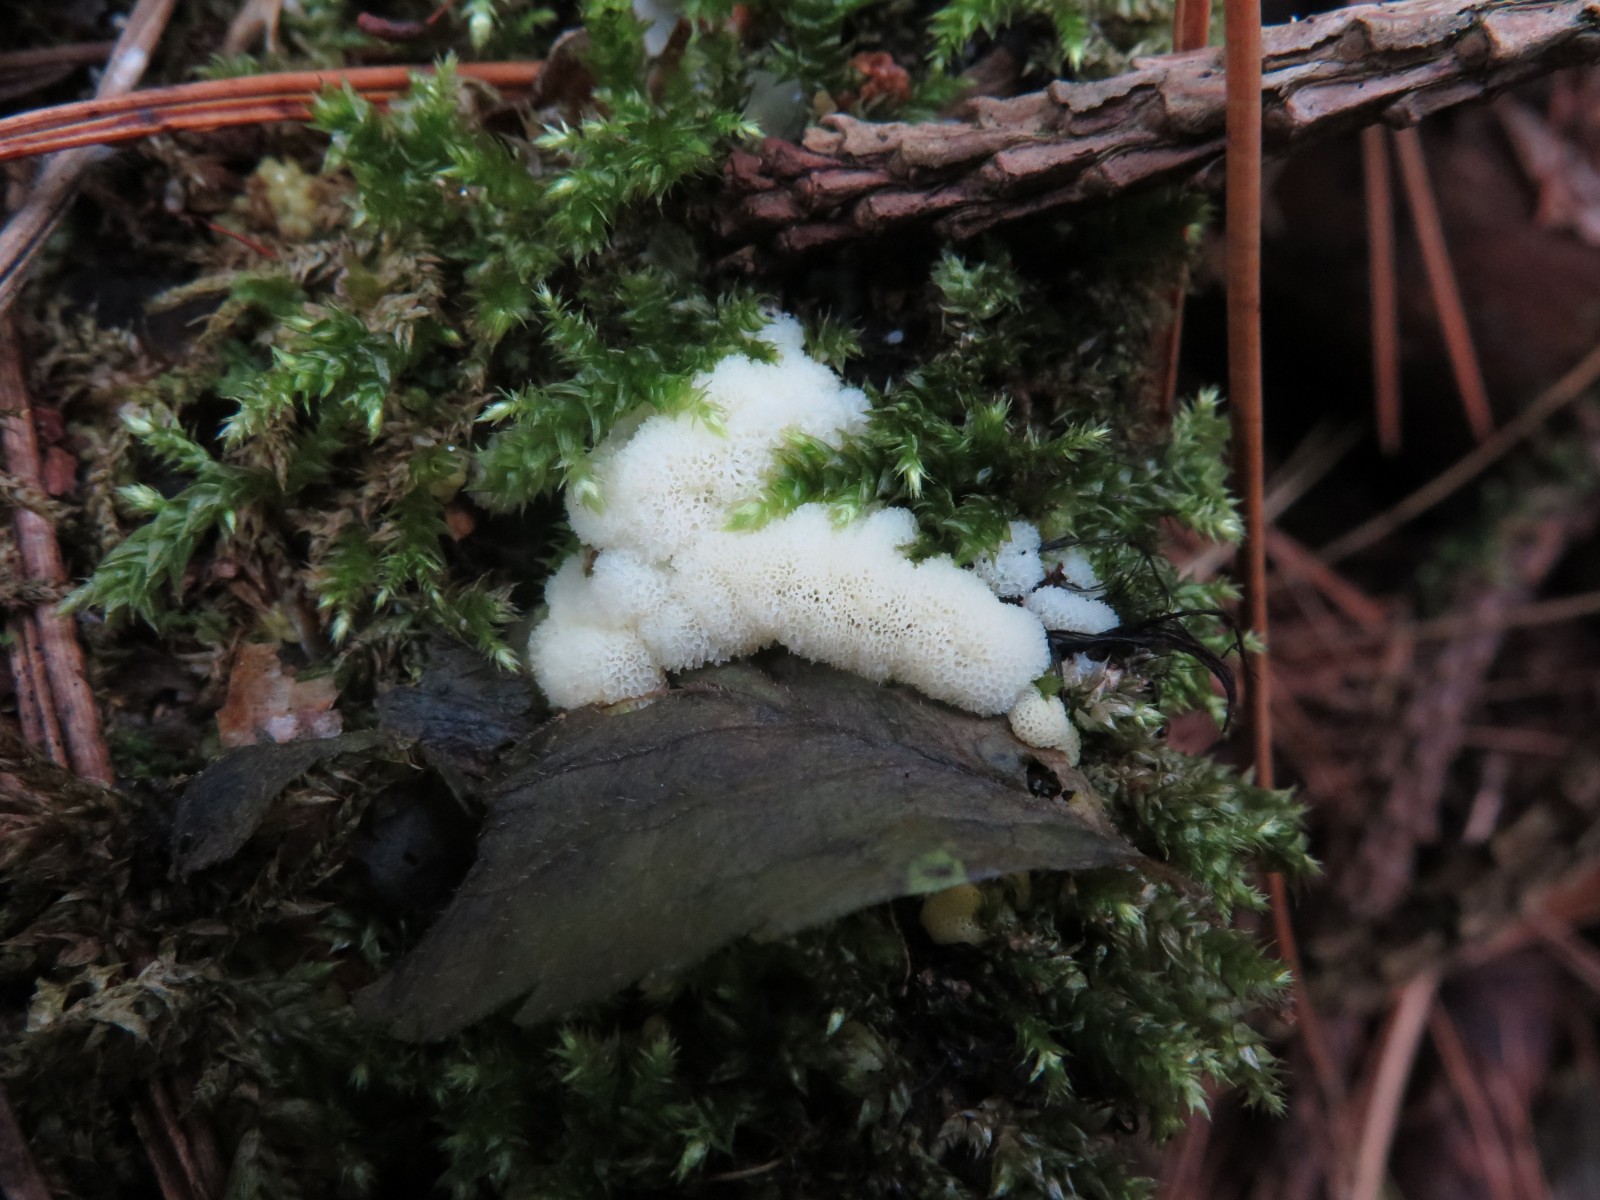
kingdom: Protozoa
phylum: Mycetozoa
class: Protosteliomycetes
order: Ceratiomyxales
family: Ceratiomyxaceae
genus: Ceratiomyxa
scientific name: Ceratiomyxa fruticulosa
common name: Honeycomb coral slime mold
